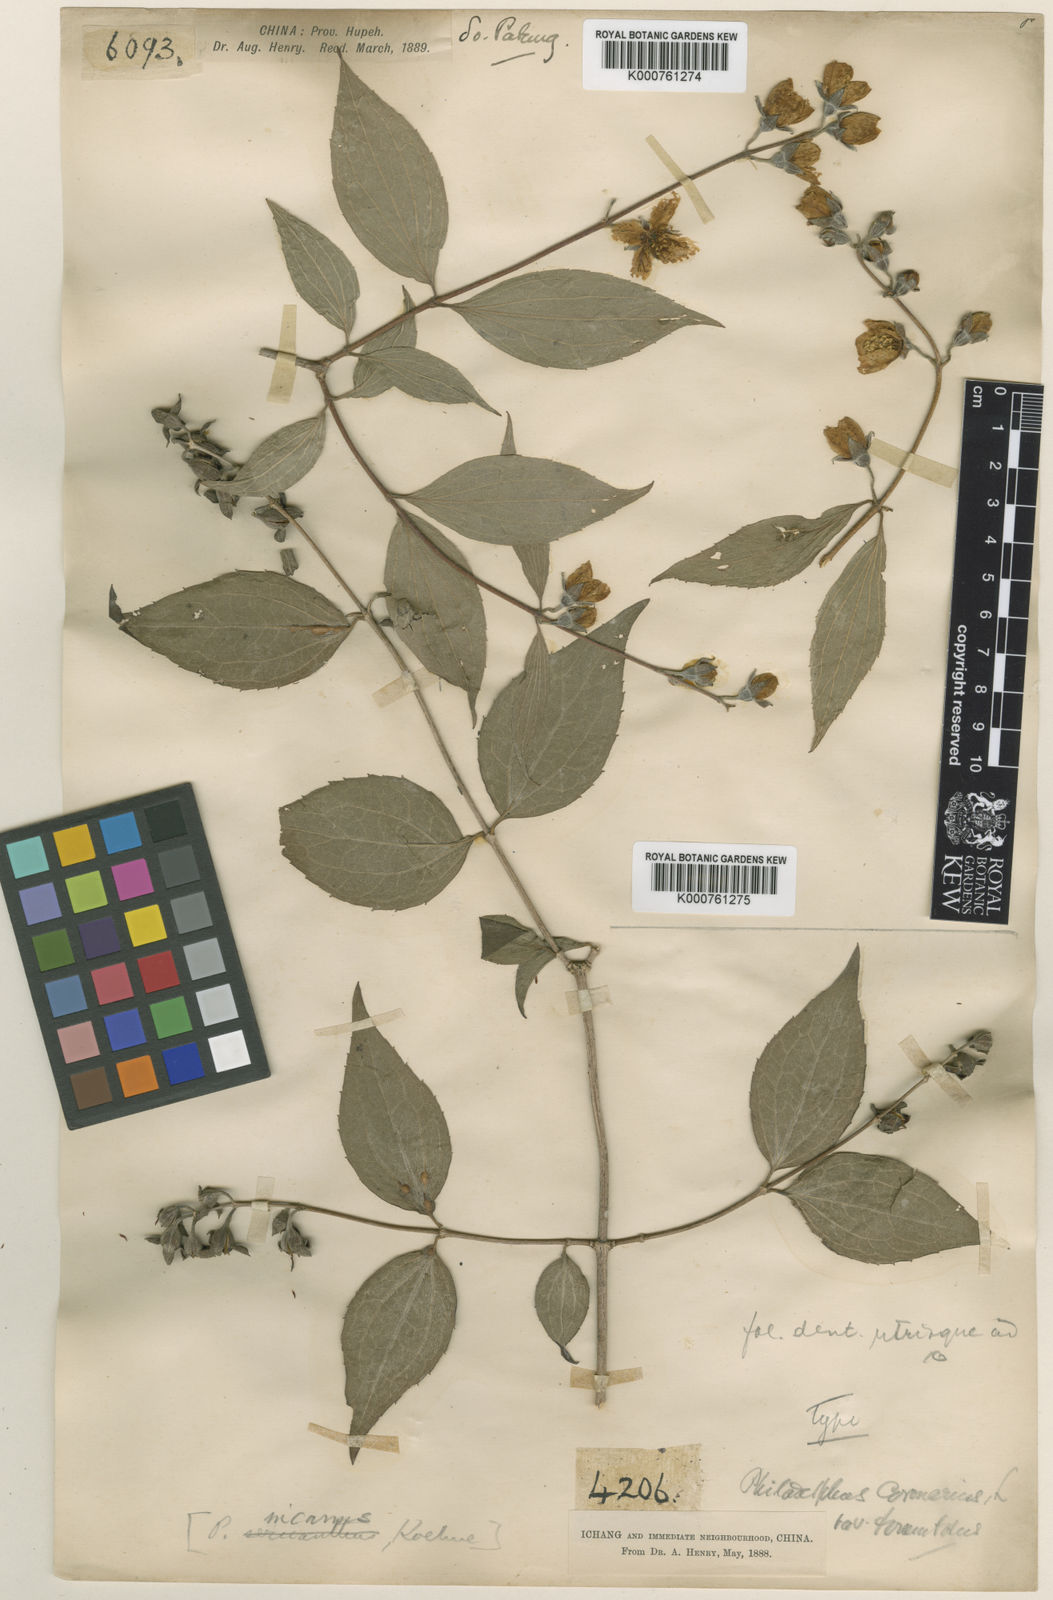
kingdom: Plantae
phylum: Tracheophyta
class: Magnoliopsida
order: Cornales
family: Hydrangeaceae
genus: Philadelphus
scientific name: Philadelphus incanus
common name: Hairy mock orange
